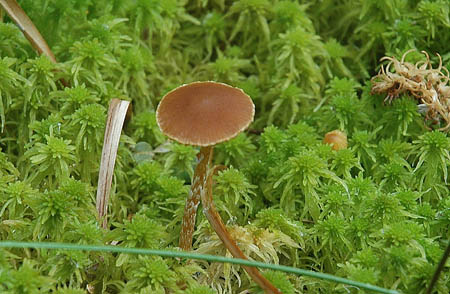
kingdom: Fungi
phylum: Basidiomycota
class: Agaricomycetes
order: Agaricales
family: Hymenogastraceae
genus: Galerina
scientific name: Galerina paludosa
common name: mose-hjelmhat
